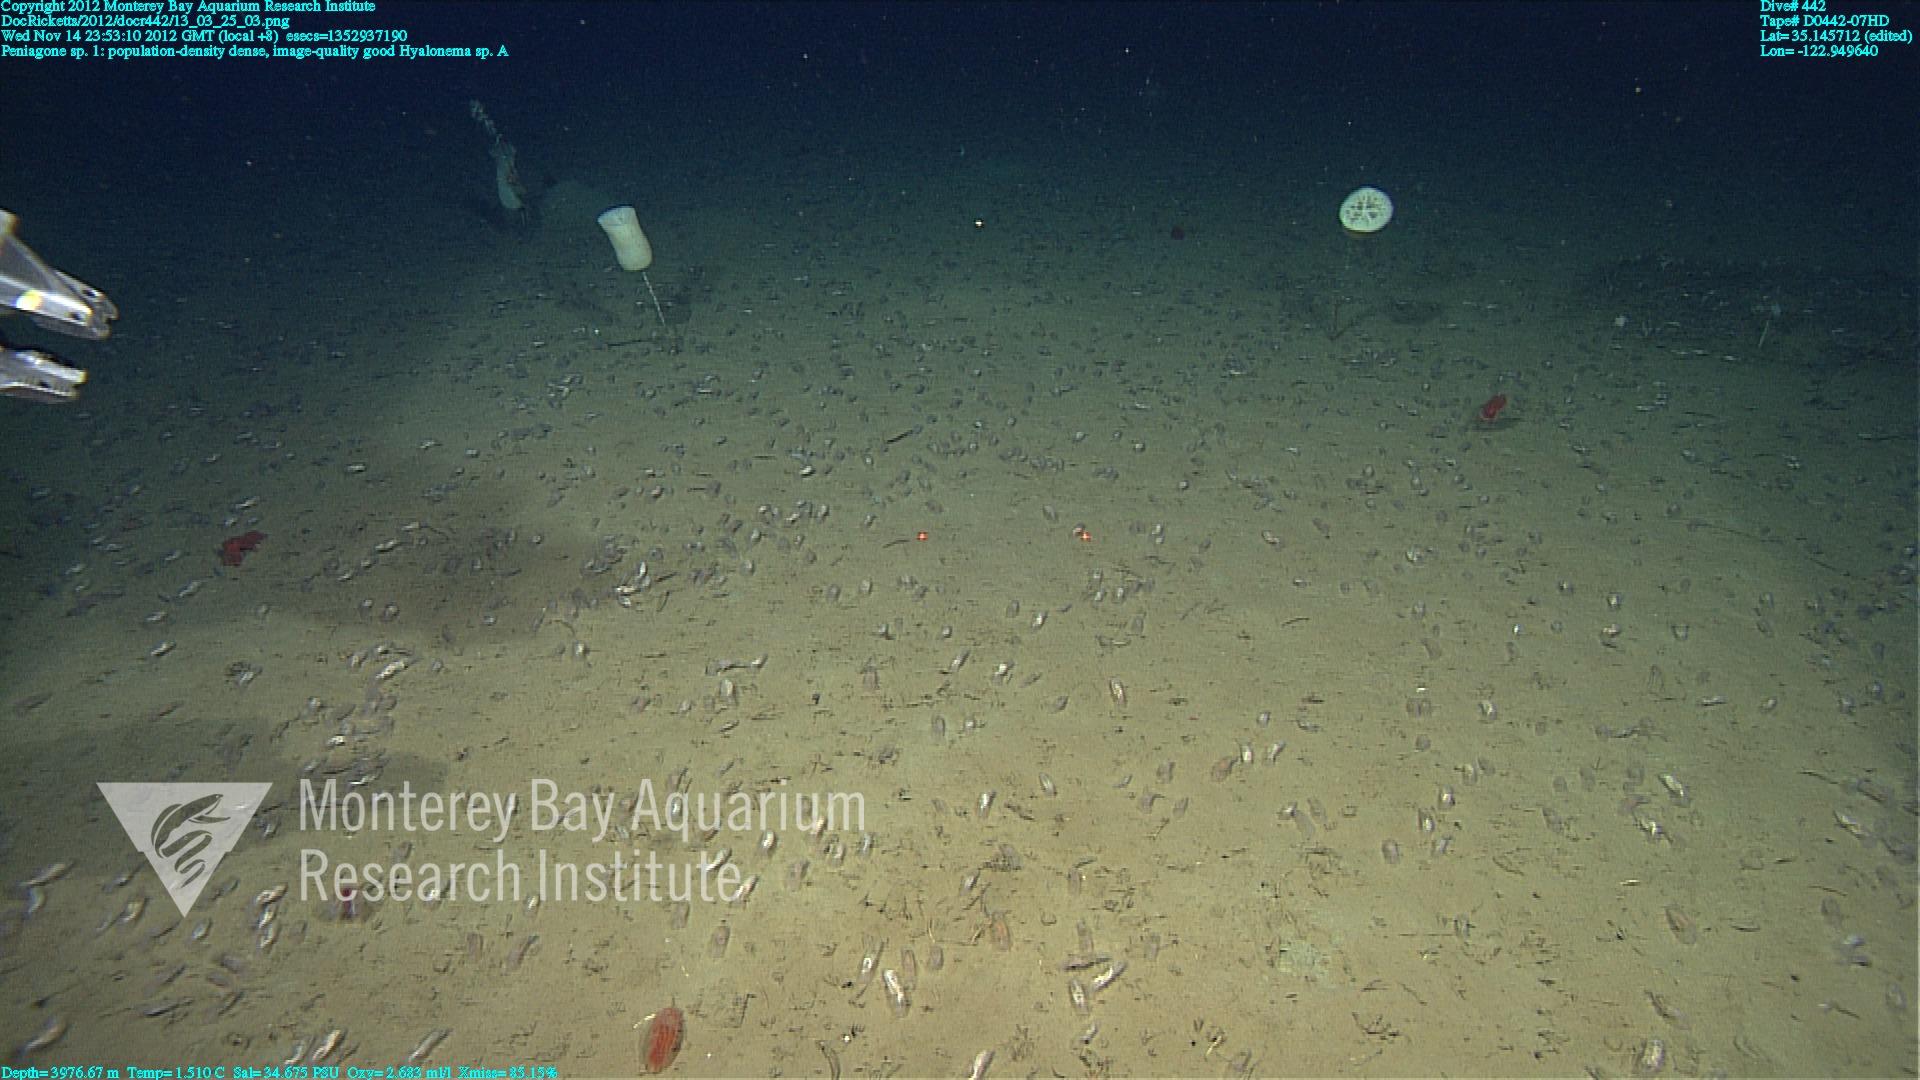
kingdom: Animalia
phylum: Porifera
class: Hexactinellida
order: Amphidiscosida
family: Hyalonematidae
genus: Hyalonema
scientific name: Hyalonema
